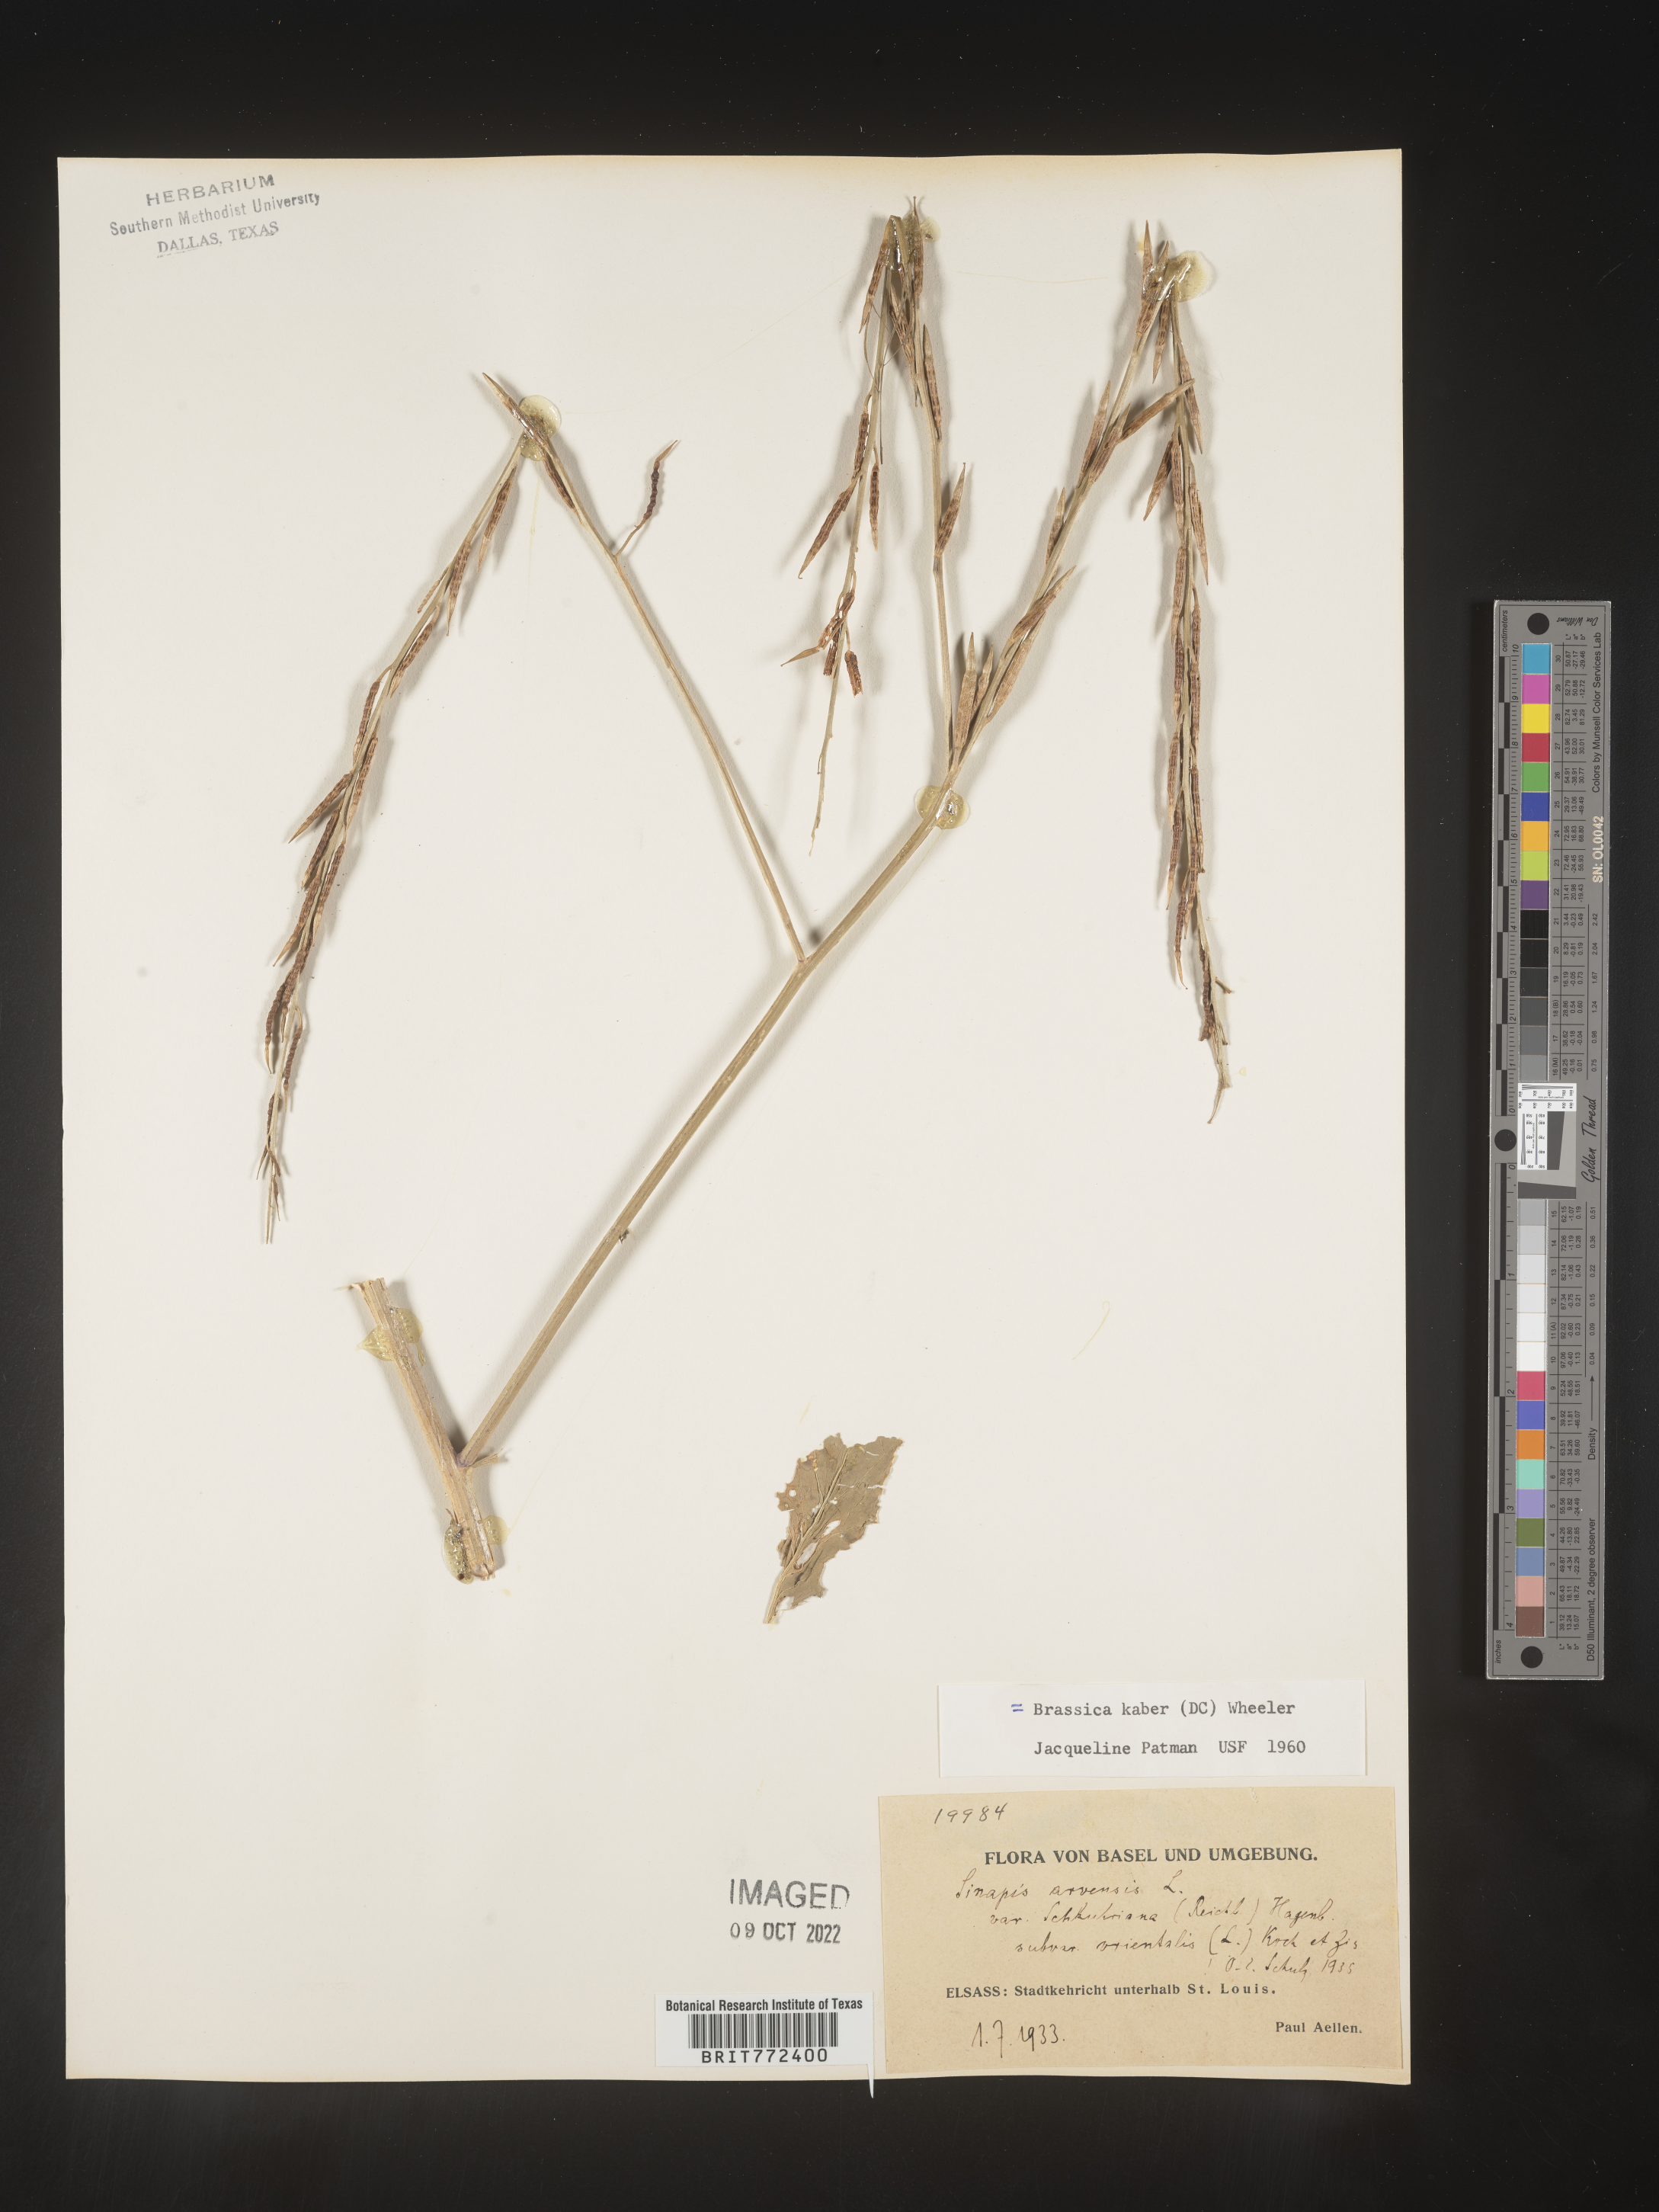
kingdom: Plantae
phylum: Tracheophyta
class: Magnoliopsida
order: Brassicales
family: Brassicaceae
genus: Brassica
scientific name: Brassica
